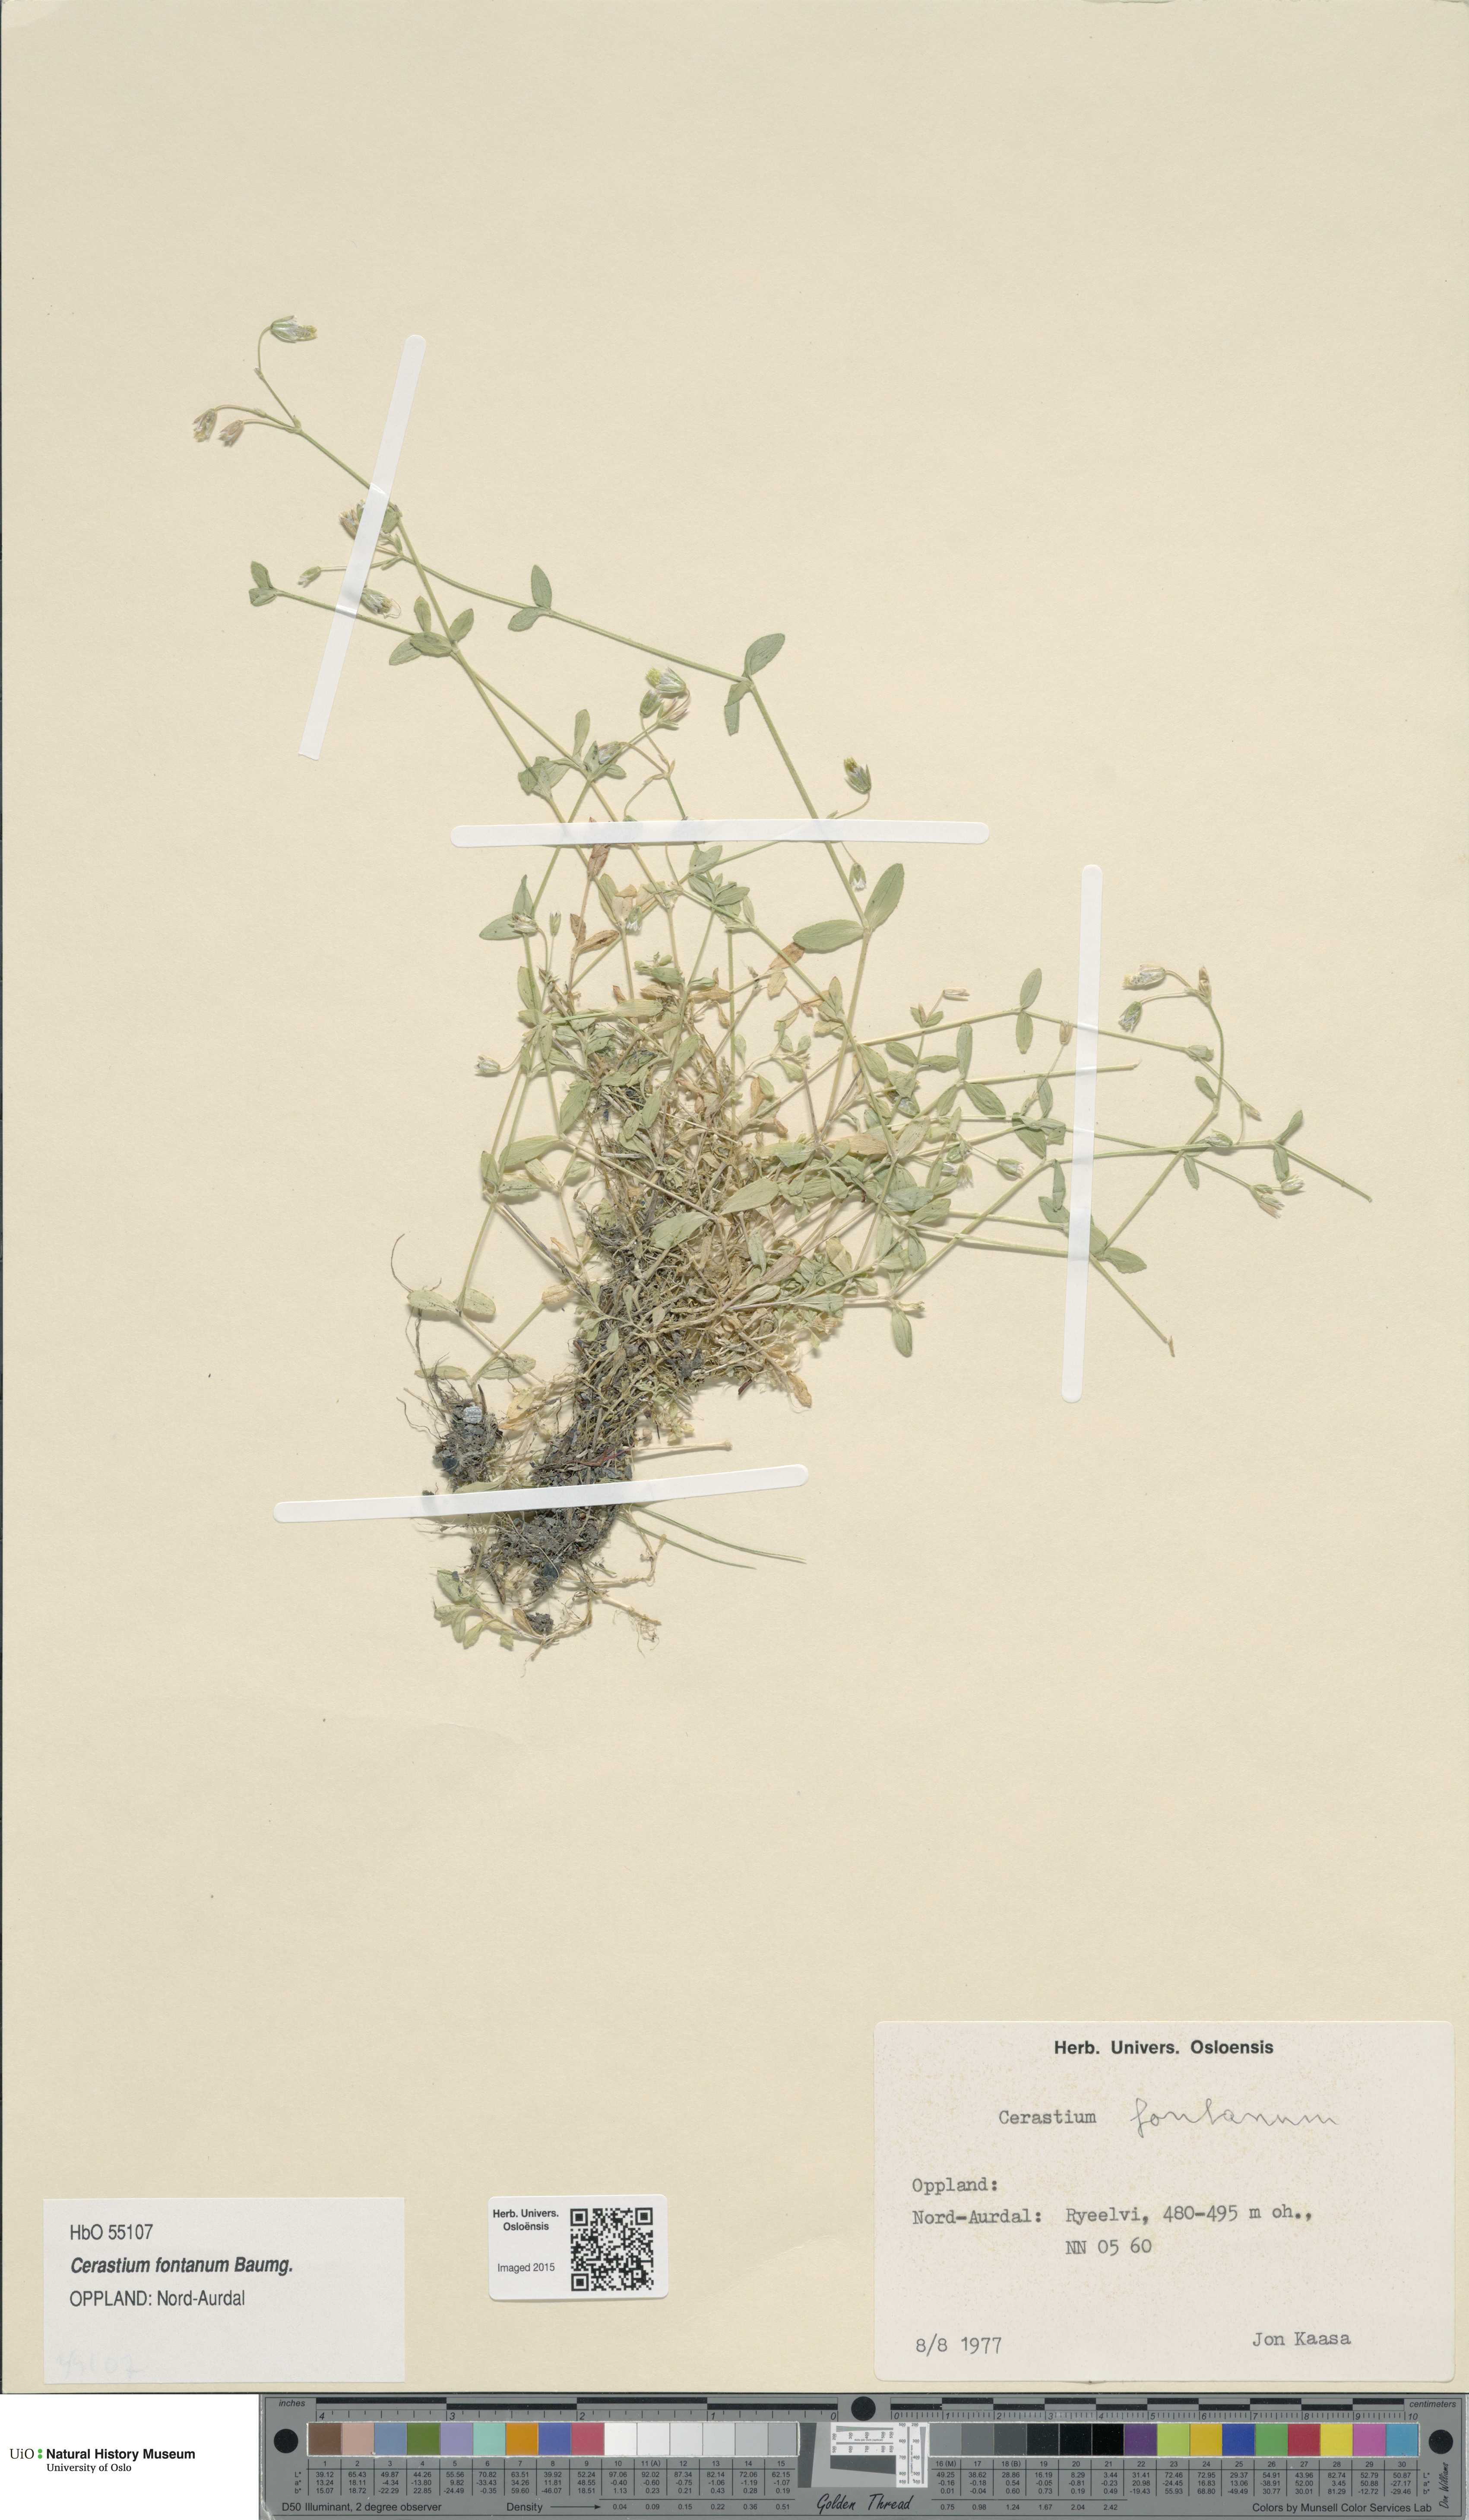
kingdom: Plantae
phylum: Tracheophyta
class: Magnoliopsida
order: Caryophyllales
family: Caryophyllaceae
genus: Cerastium
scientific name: Cerastium fontanum
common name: Common mouse-ear
